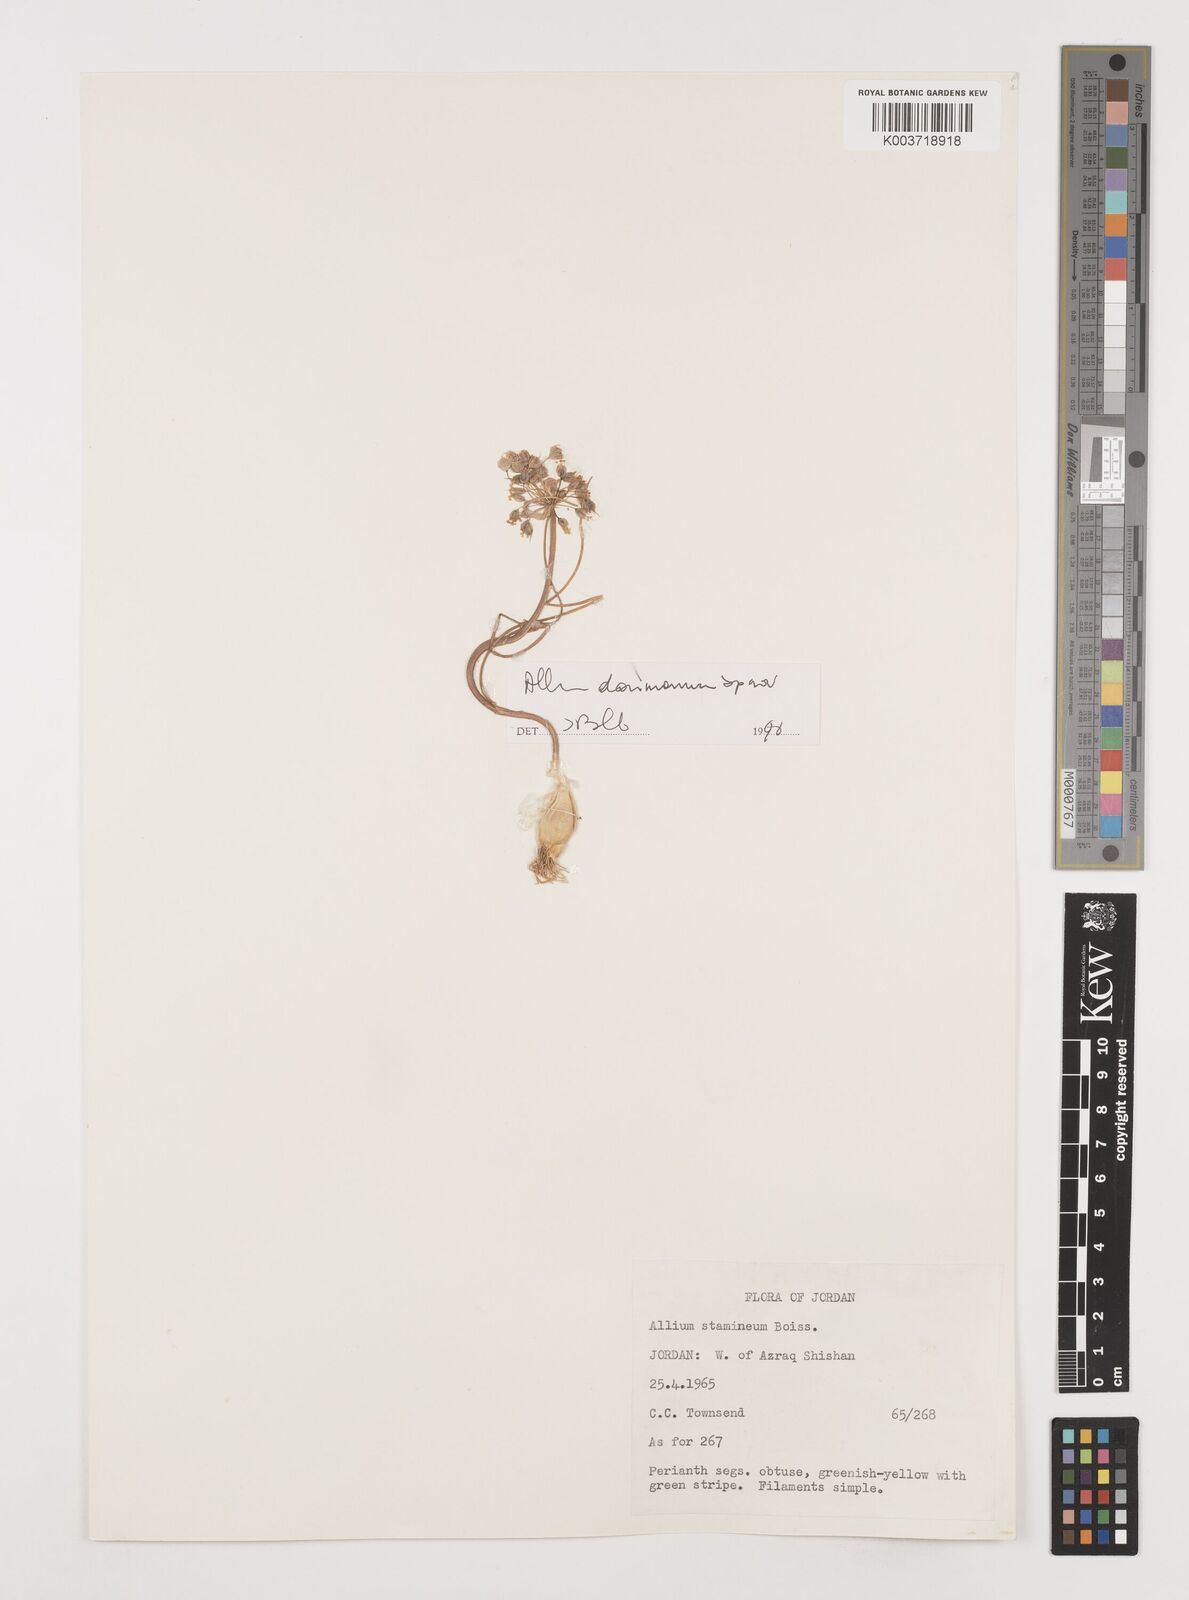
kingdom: Plantae
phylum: Tracheophyta
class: Liliopsida
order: Asparagales
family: Amaryllidaceae
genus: Allium
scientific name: Allium stamineum
